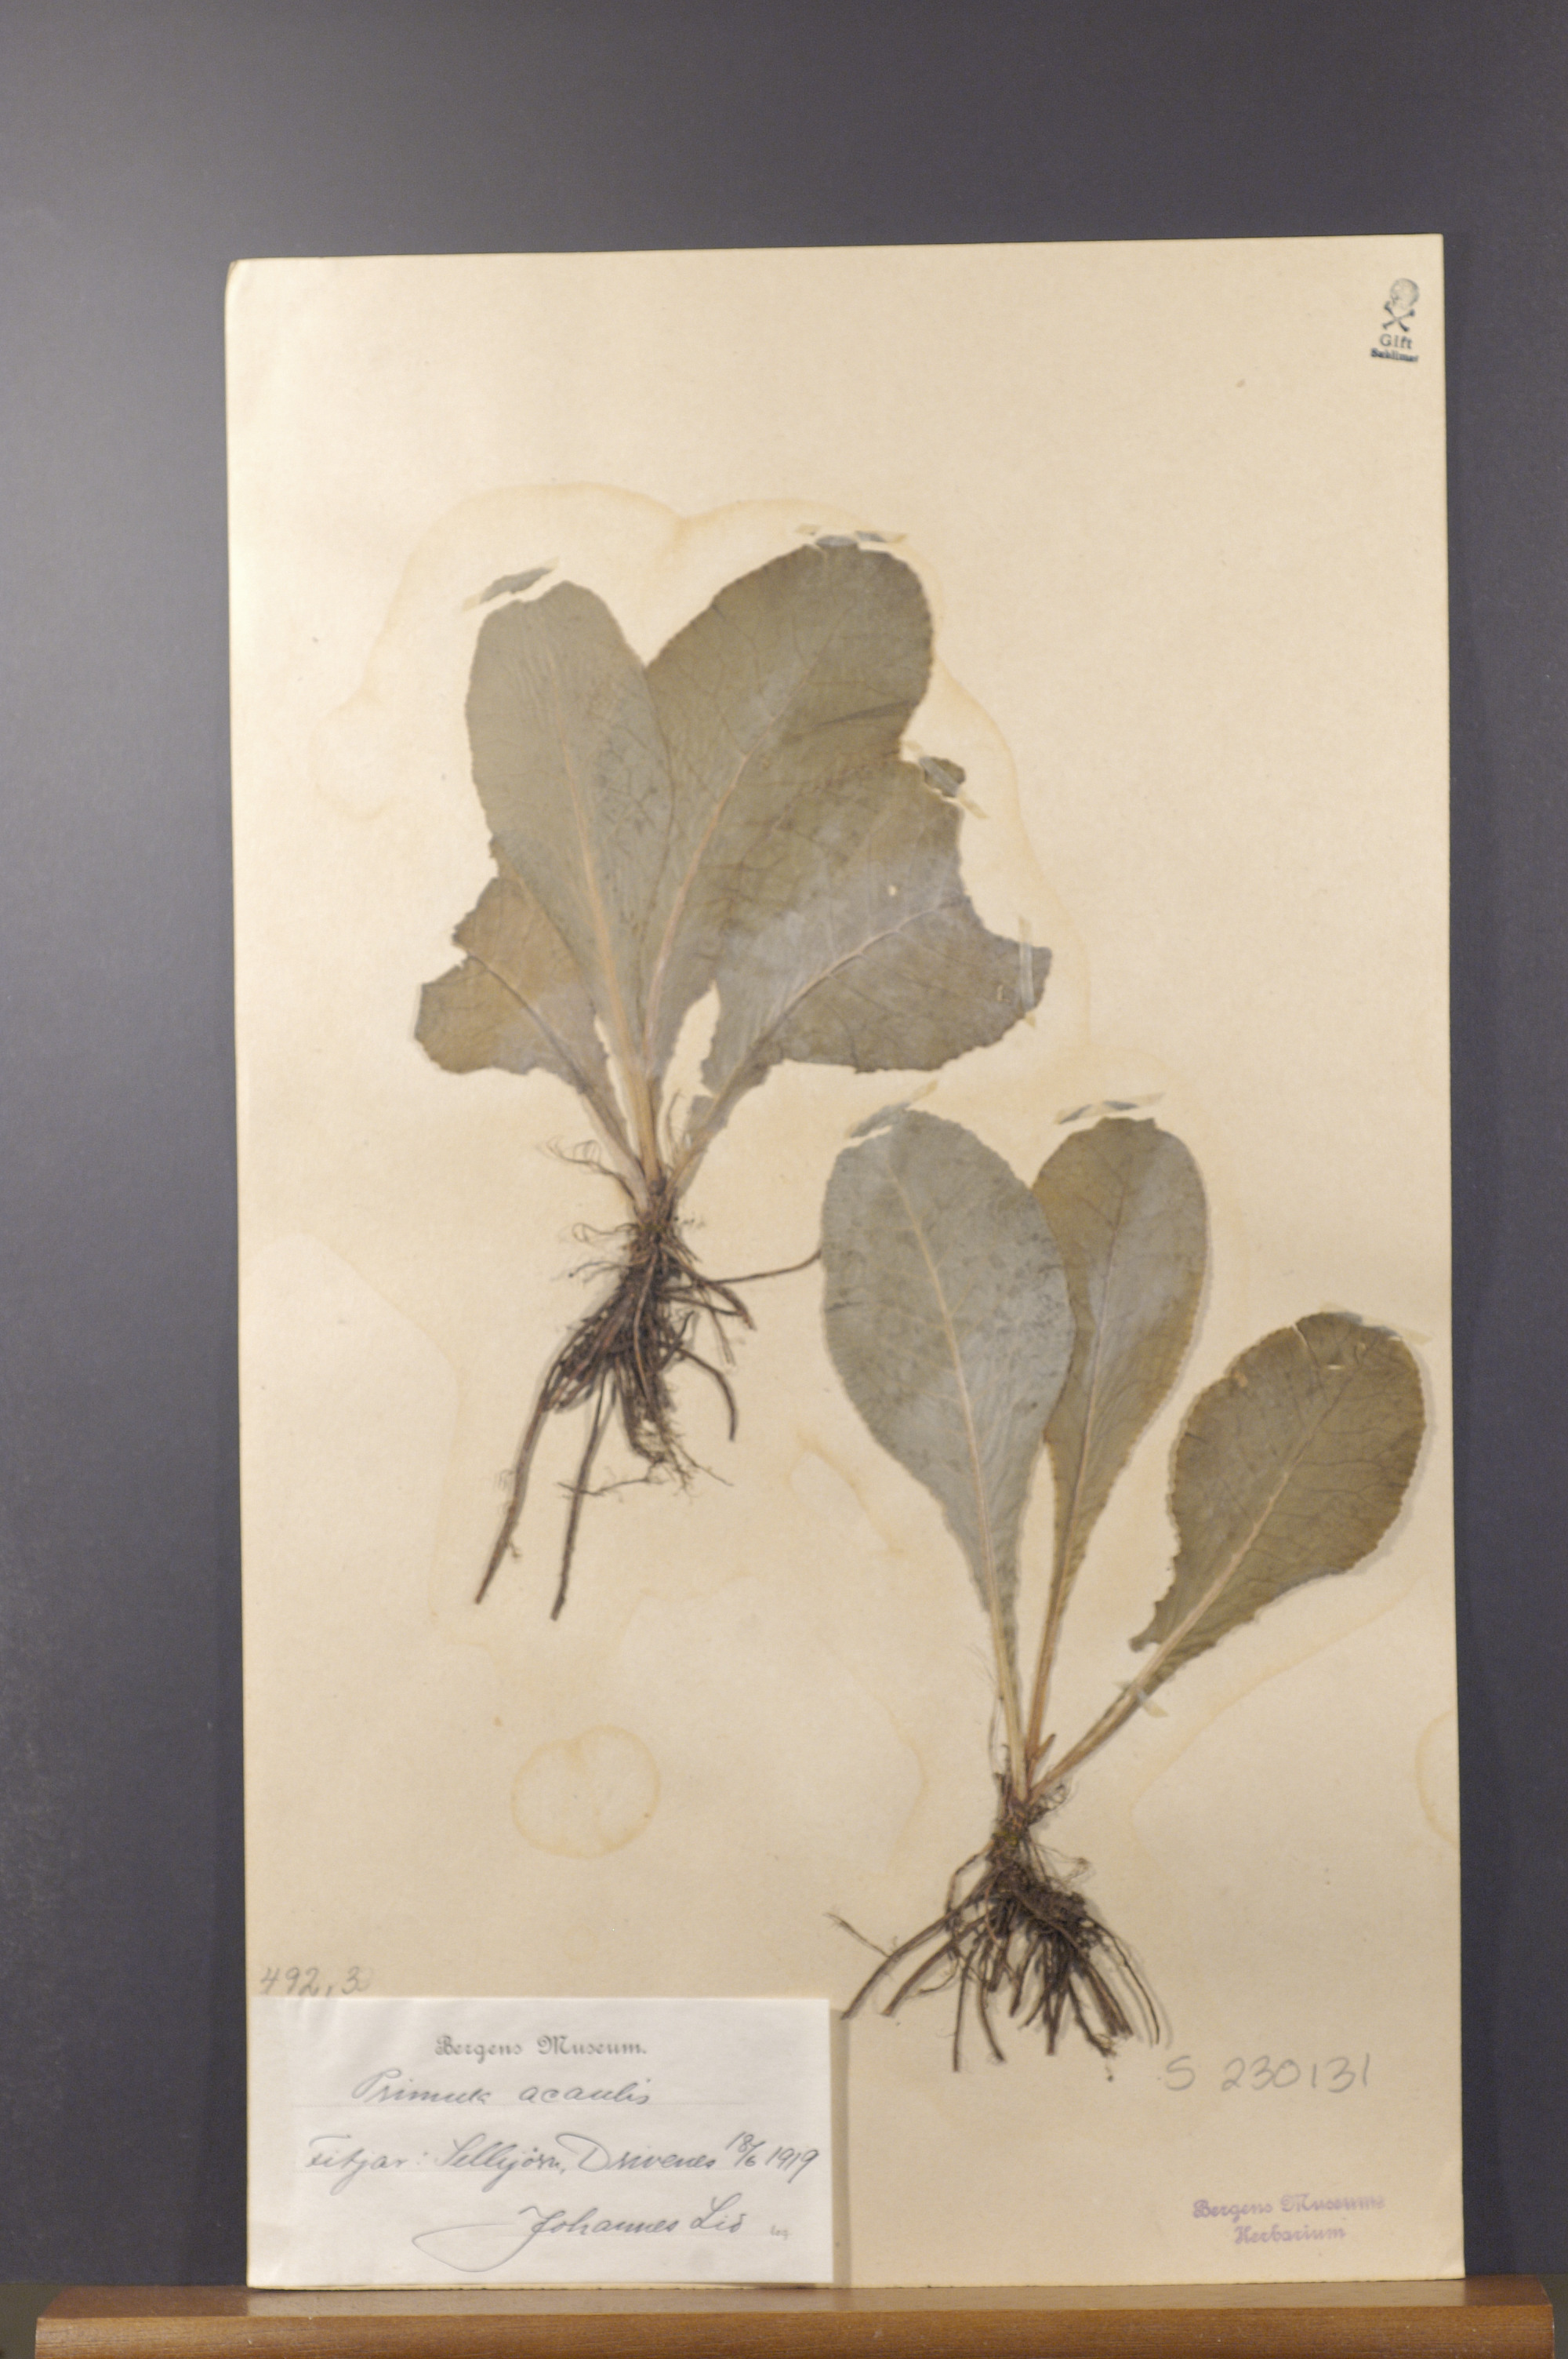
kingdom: Plantae
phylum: Tracheophyta
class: Magnoliopsida
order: Ericales
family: Primulaceae
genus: Primula
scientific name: Primula vulgaris
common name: Primrose
